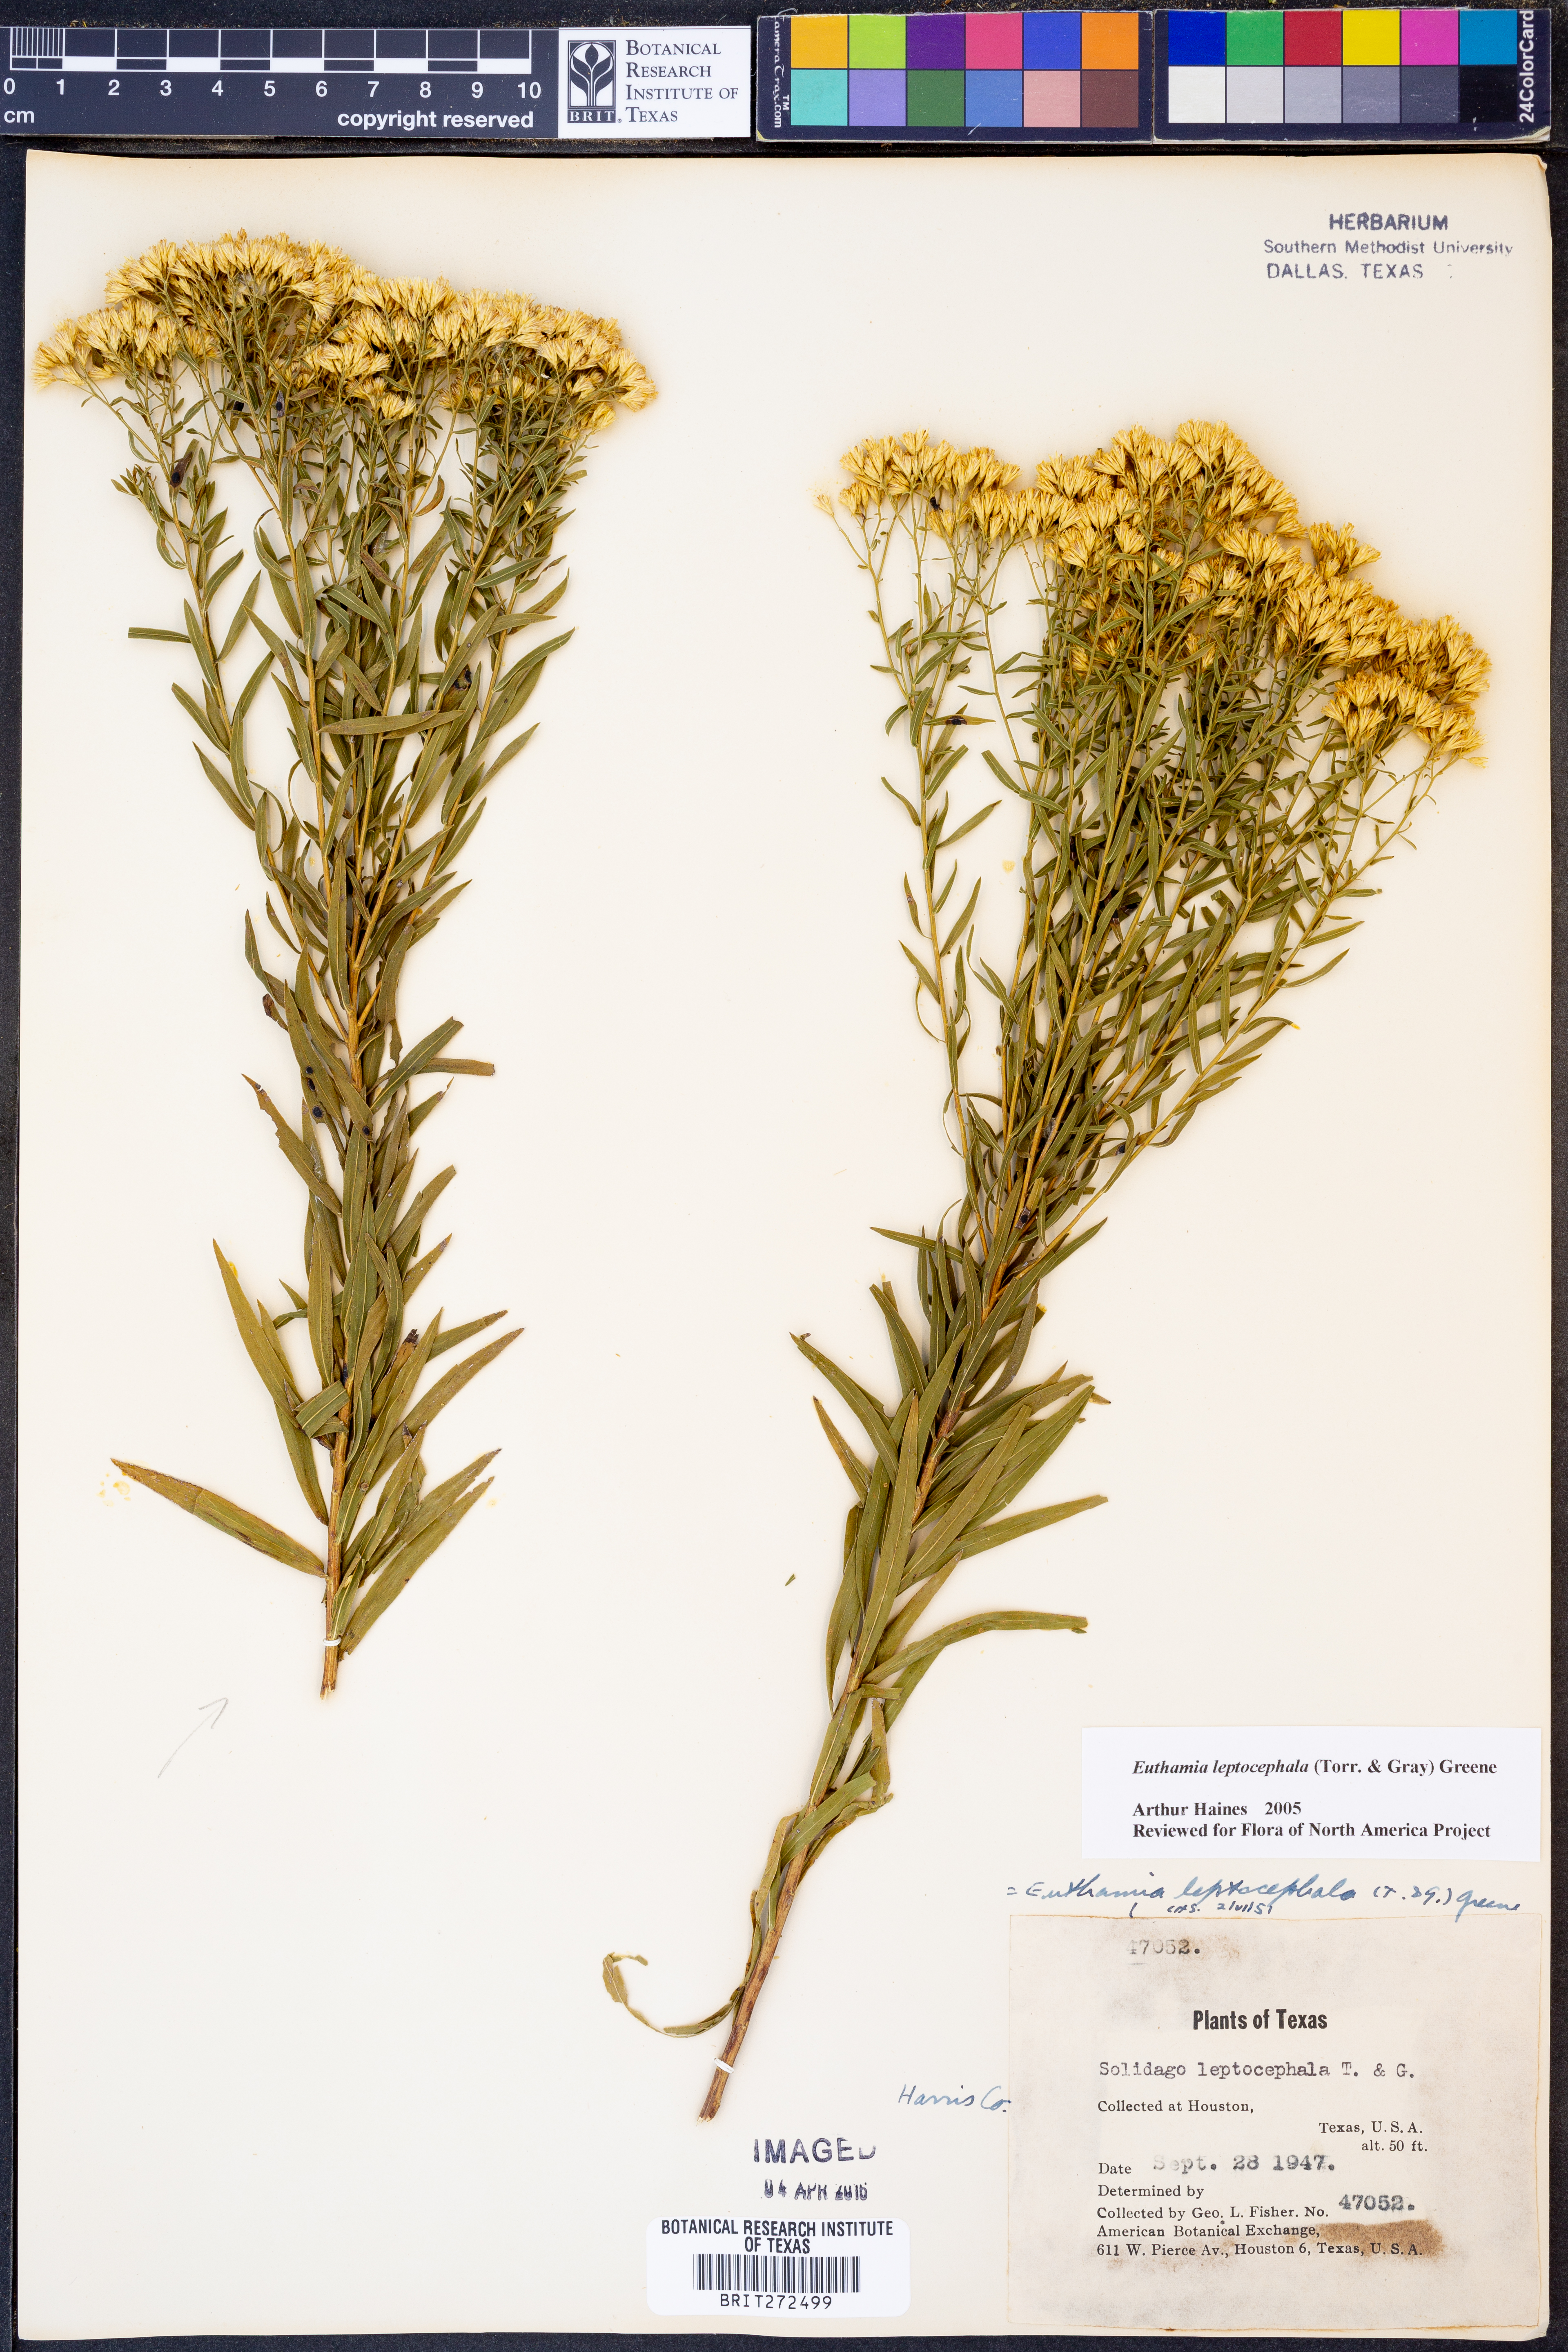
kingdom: Plantae
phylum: Tracheophyta
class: Magnoliopsida
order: Asterales
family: Asteraceae
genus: Euthamia
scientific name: Euthamia leptocephala
